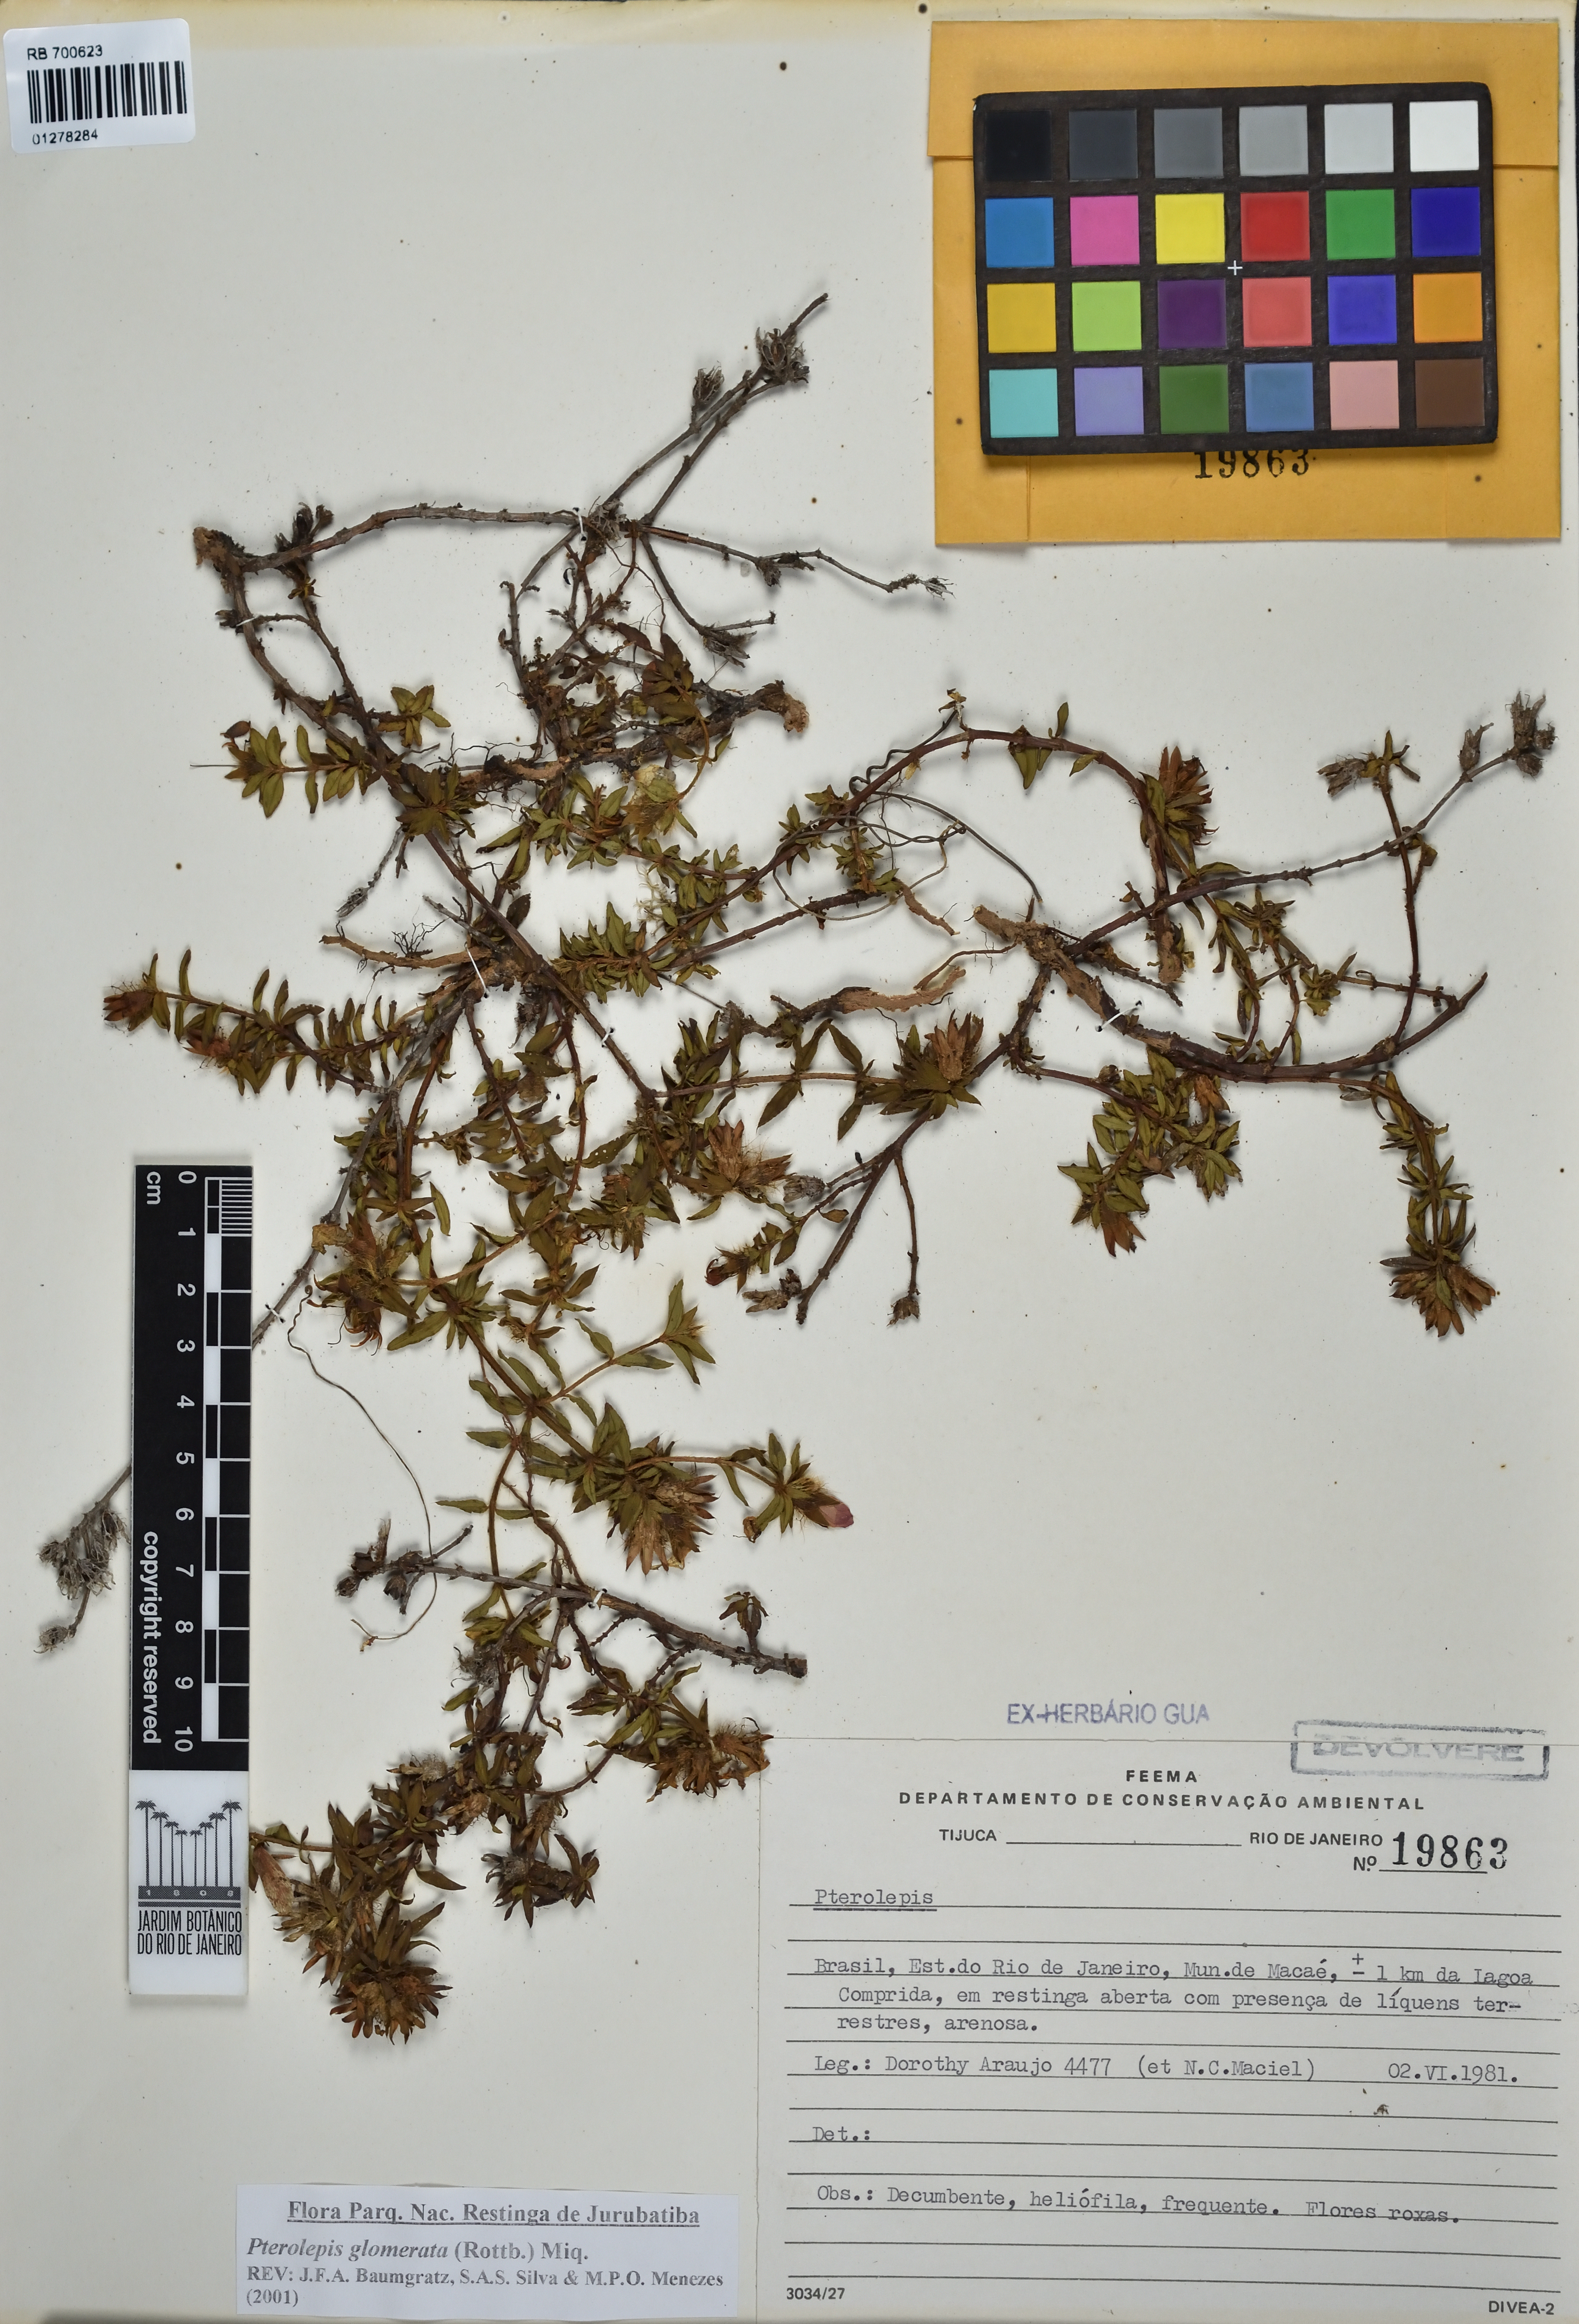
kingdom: Plantae
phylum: Tracheophyta
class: Magnoliopsida
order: Myrtales
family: Melastomataceae
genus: Pterolepis
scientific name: Pterolepis glomerata
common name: False meadowbeauty
